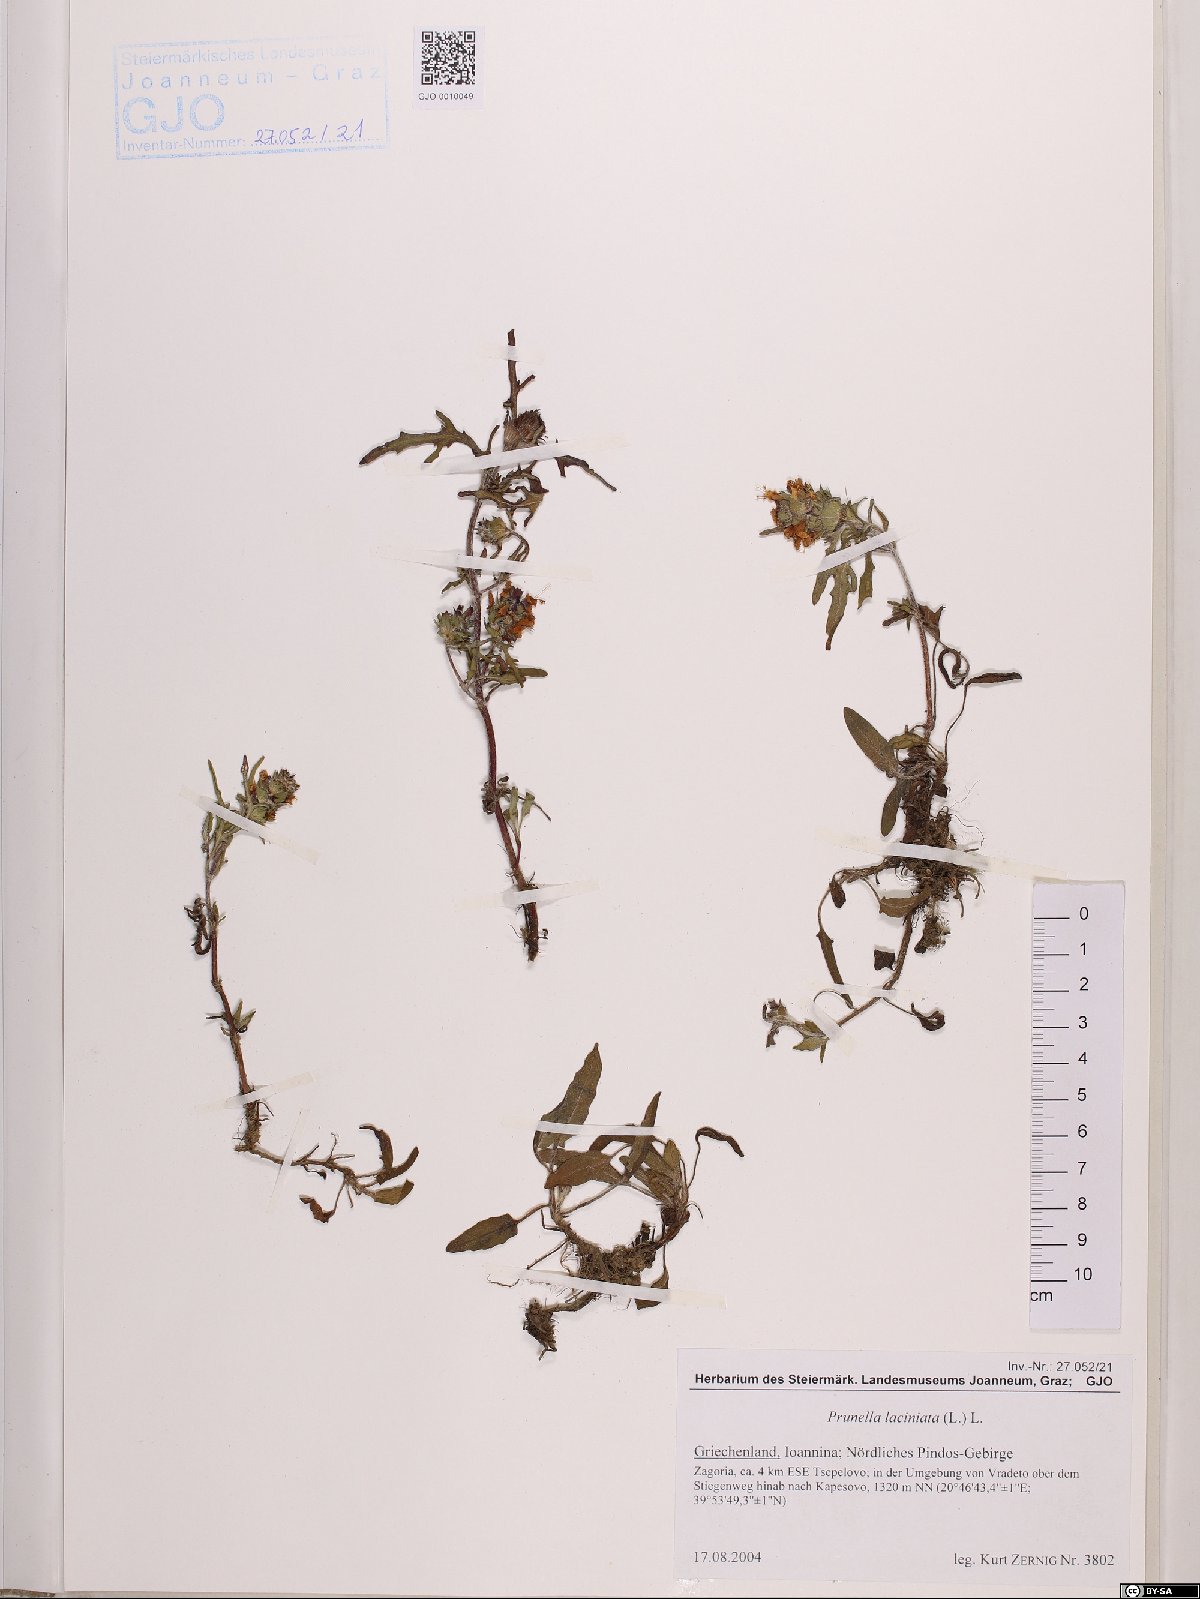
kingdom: Plantae
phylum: Tracheophyta
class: Magnoliopsida
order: Lamiales
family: Lamiaceae
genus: Prunella
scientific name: Prunella laciniata
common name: Cut-leaved selfheal
